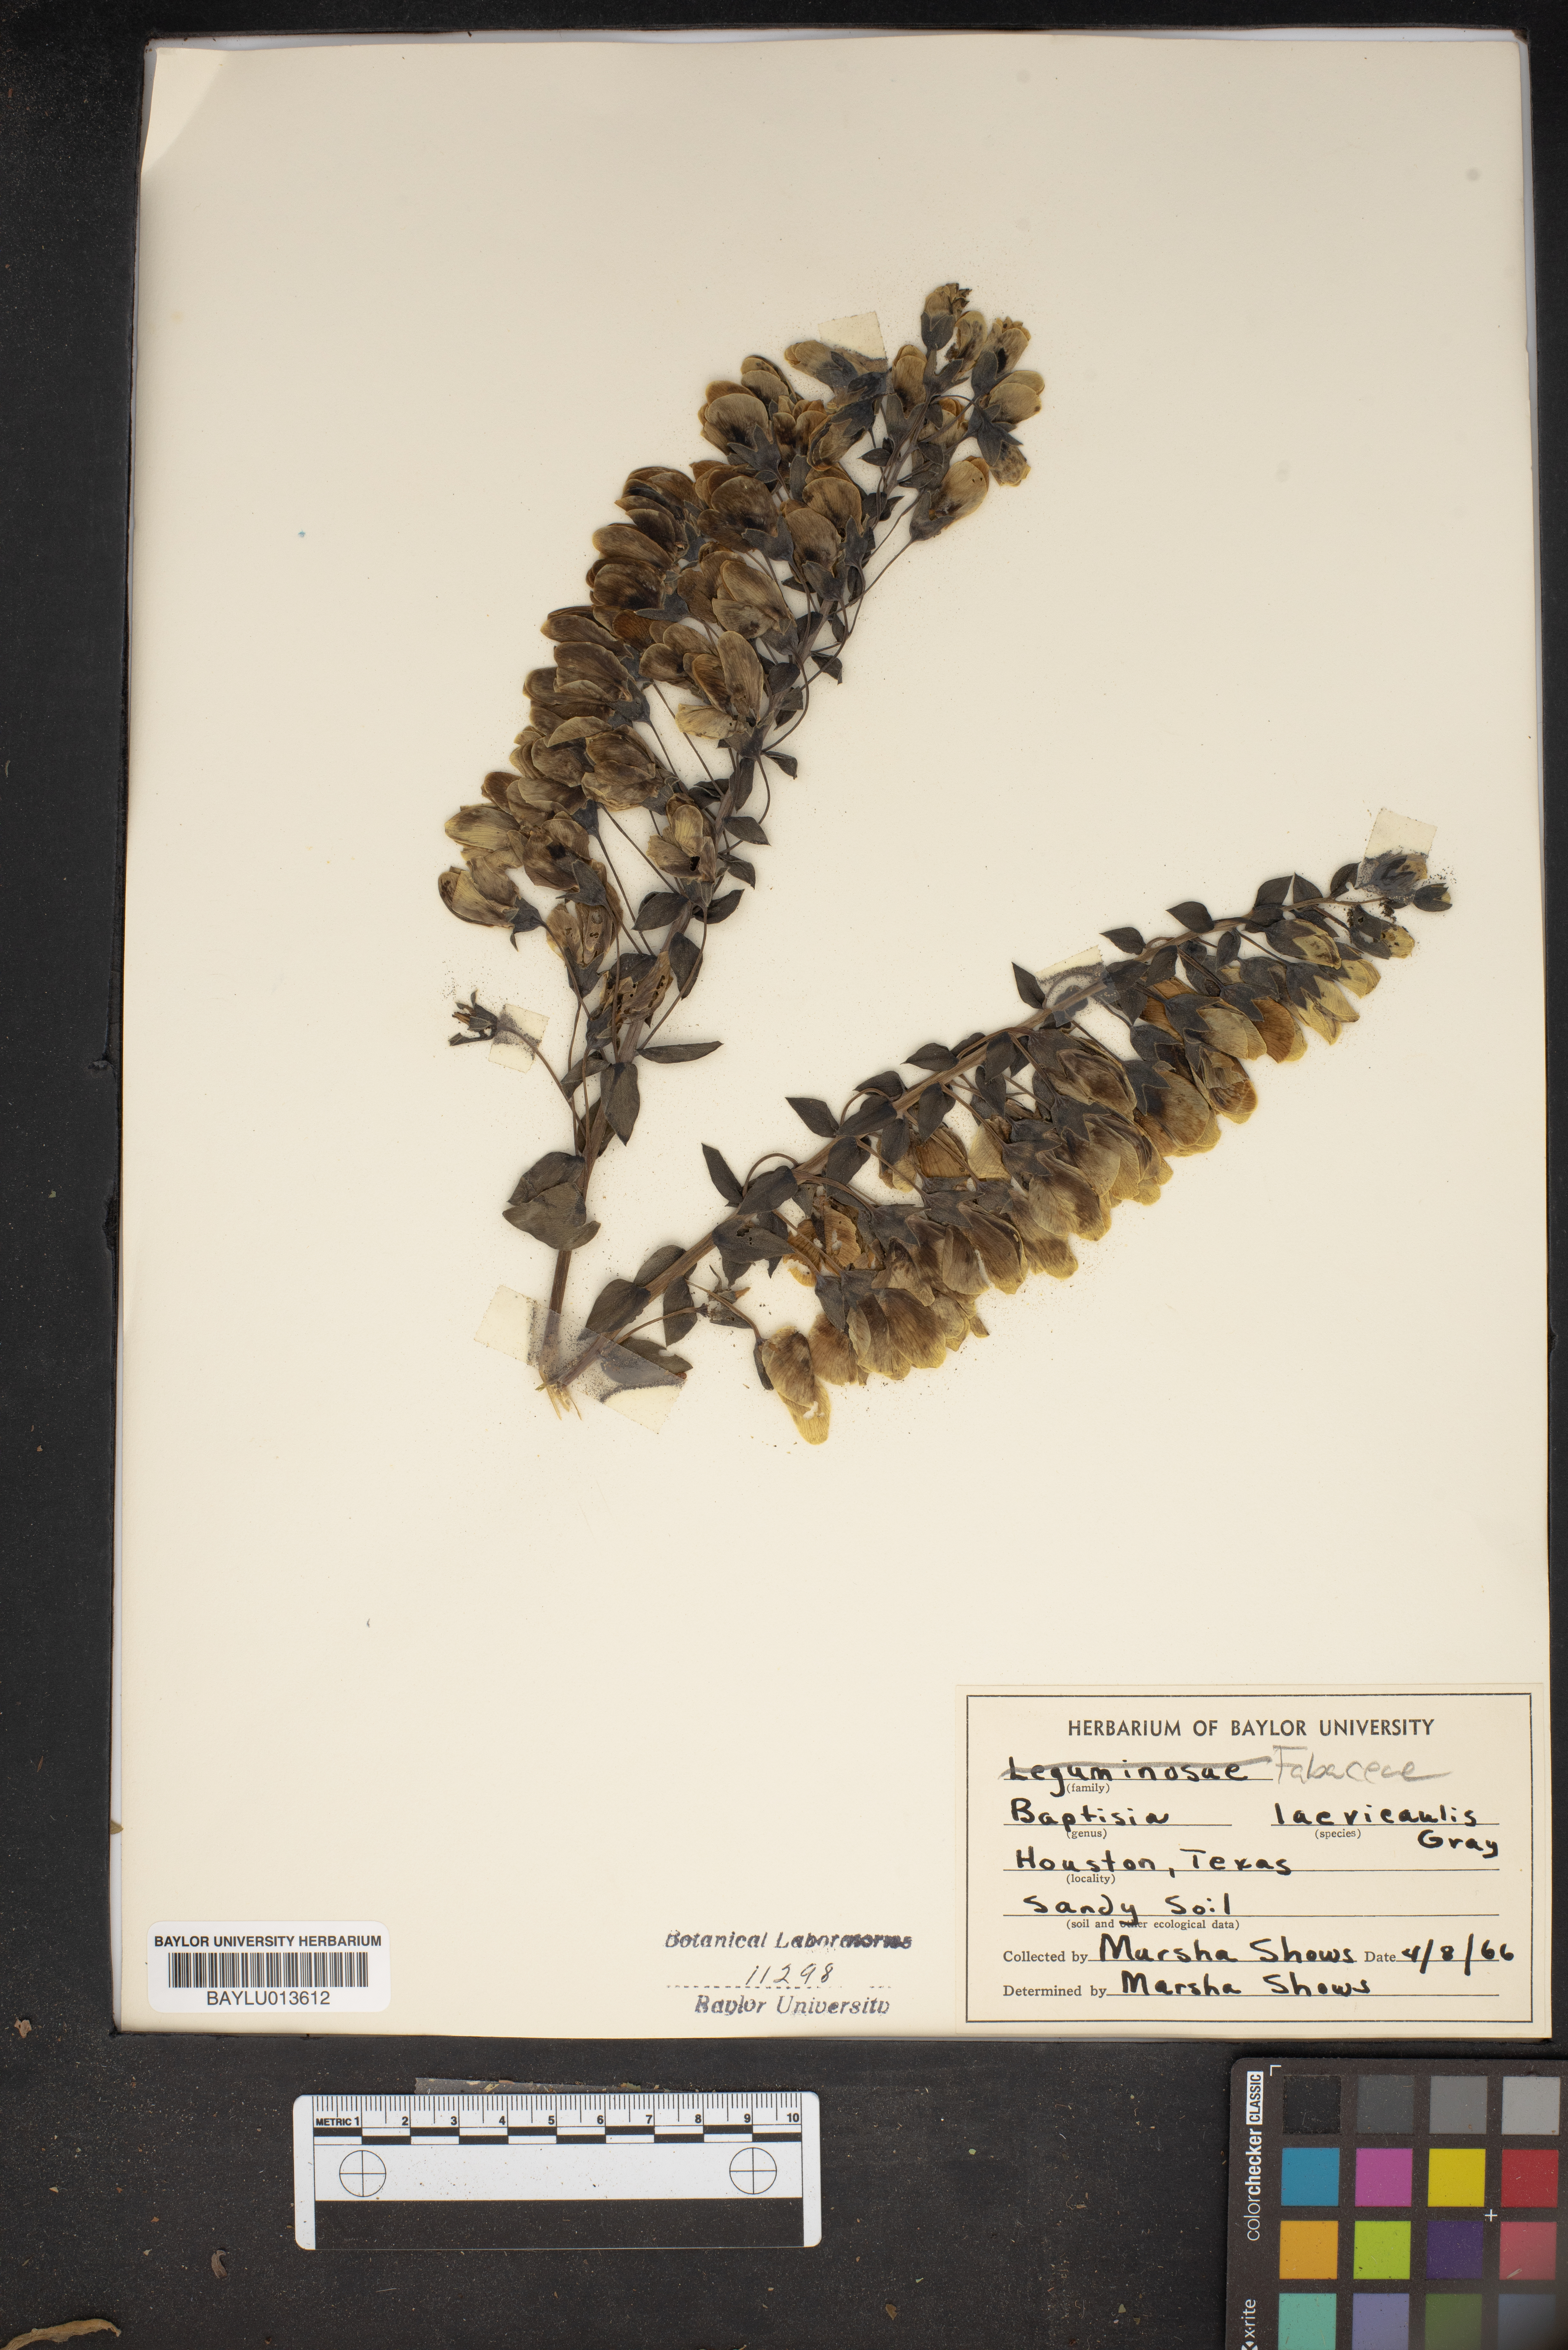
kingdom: Plantae
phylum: Tracheophyta
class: Magnoliopsida
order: Fabales
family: Fabaceae
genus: Baptisia
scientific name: Baptisia bracteata
